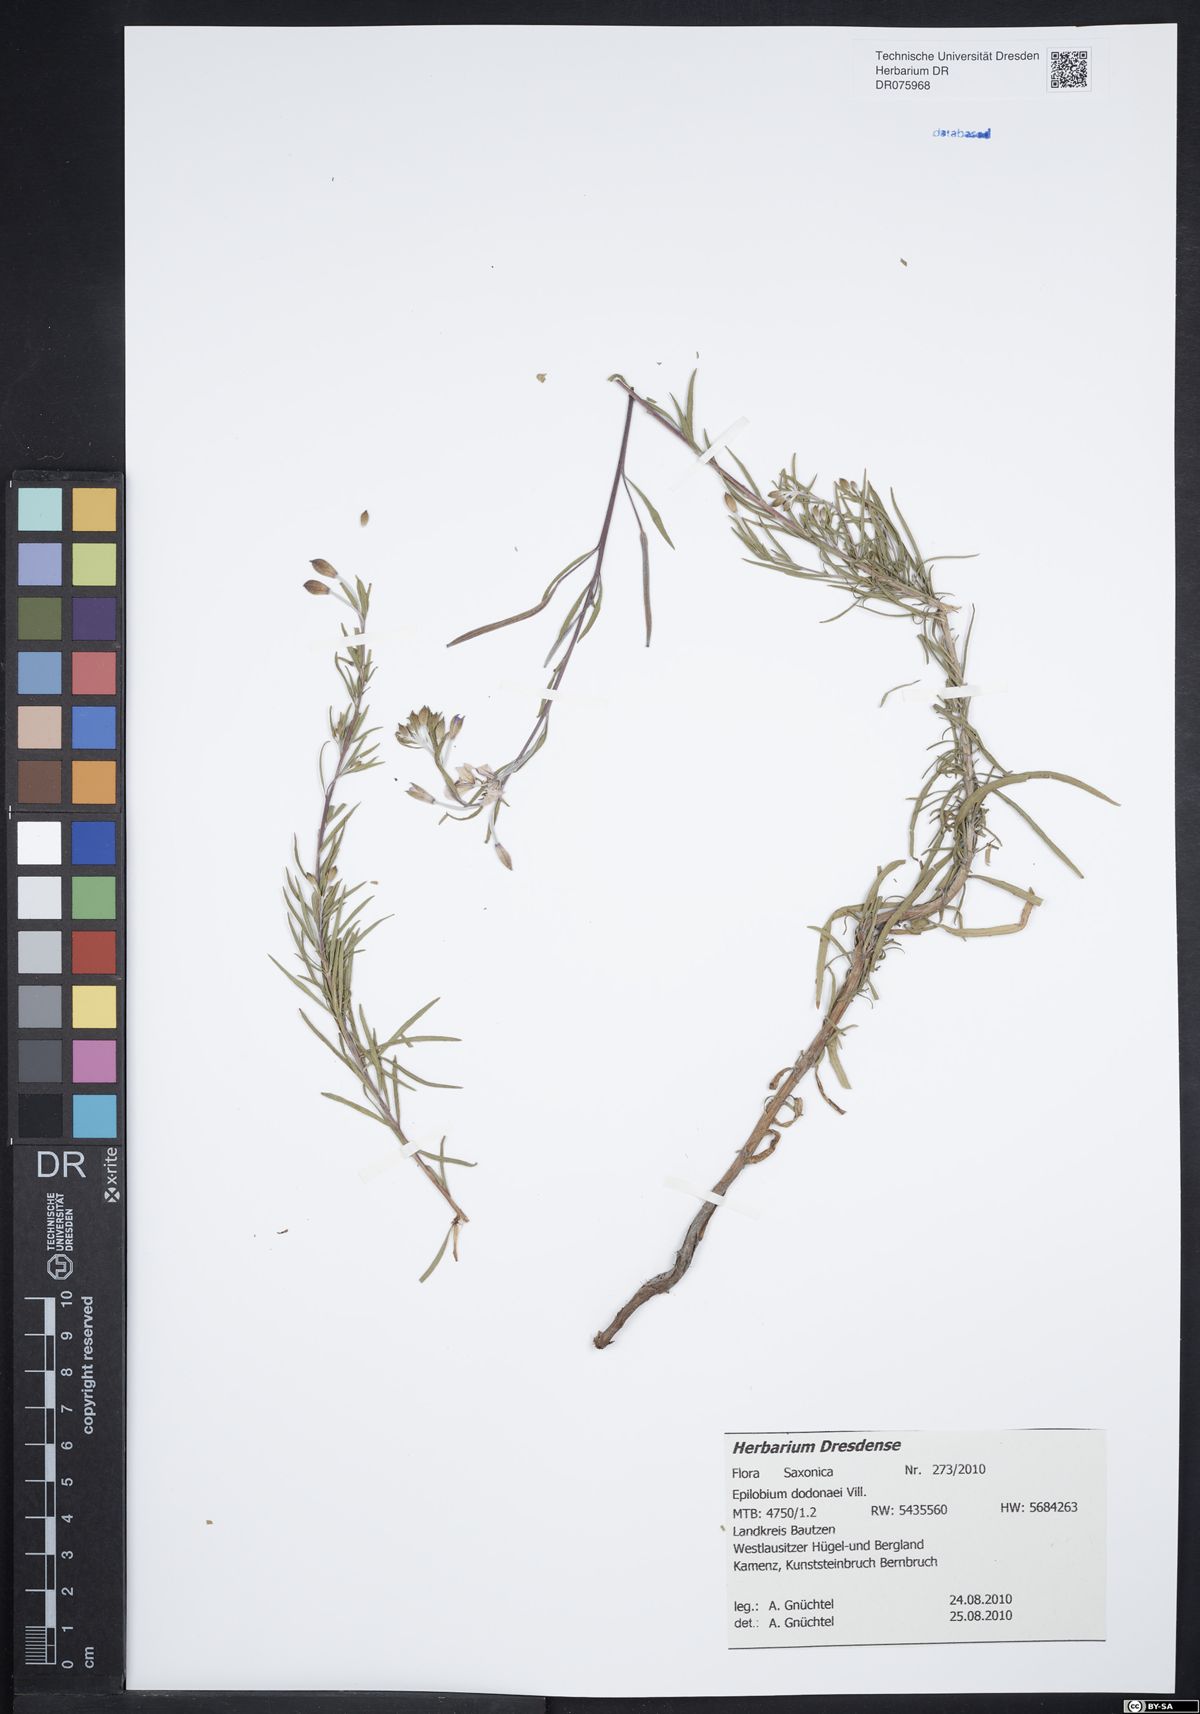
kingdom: Plantae
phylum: Tracheophyta
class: Magnoliopsida
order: Myrtales
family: Onagraceae
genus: Chamaenerion
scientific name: Chamaenerion dodonaei
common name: Rosemary-leaved willowherb
